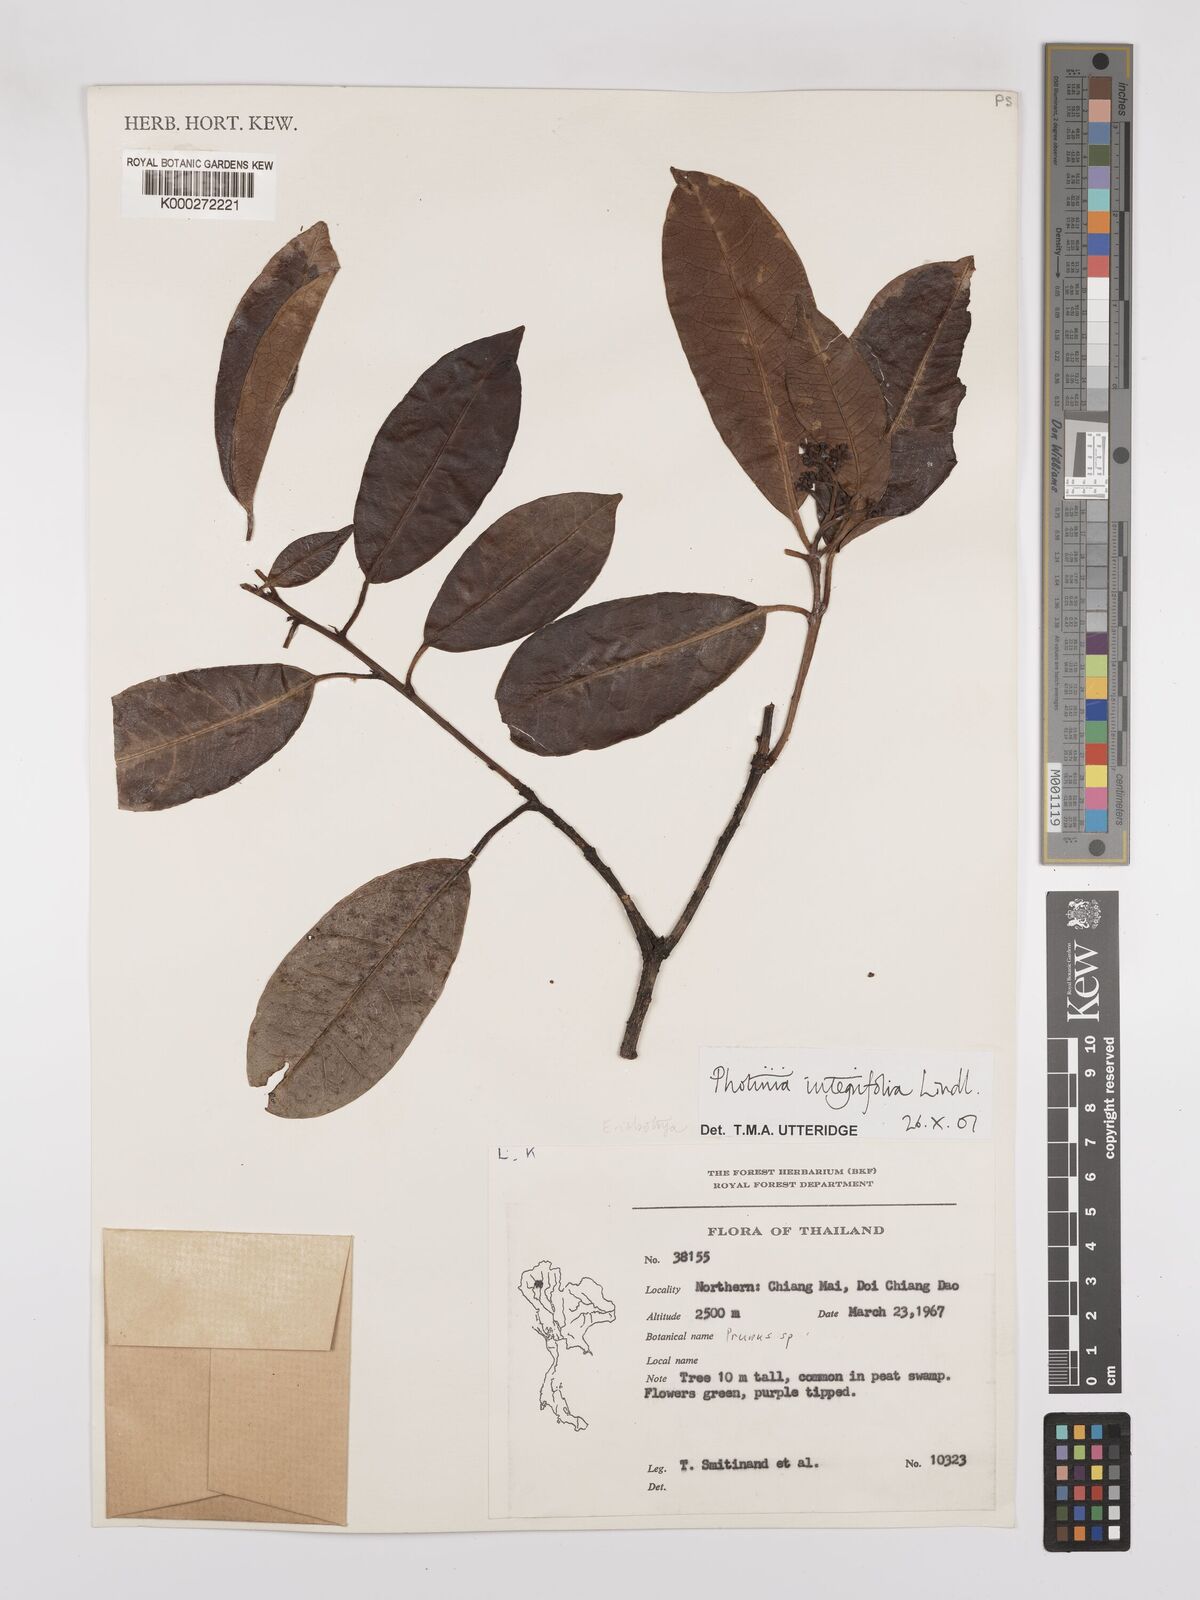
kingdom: Plantae
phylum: Tracheophyta
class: Magnoliopsida
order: Rosales
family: Rosaceae
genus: Photinia
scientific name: Photinia integrifolia
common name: Himalayan chokeberry
